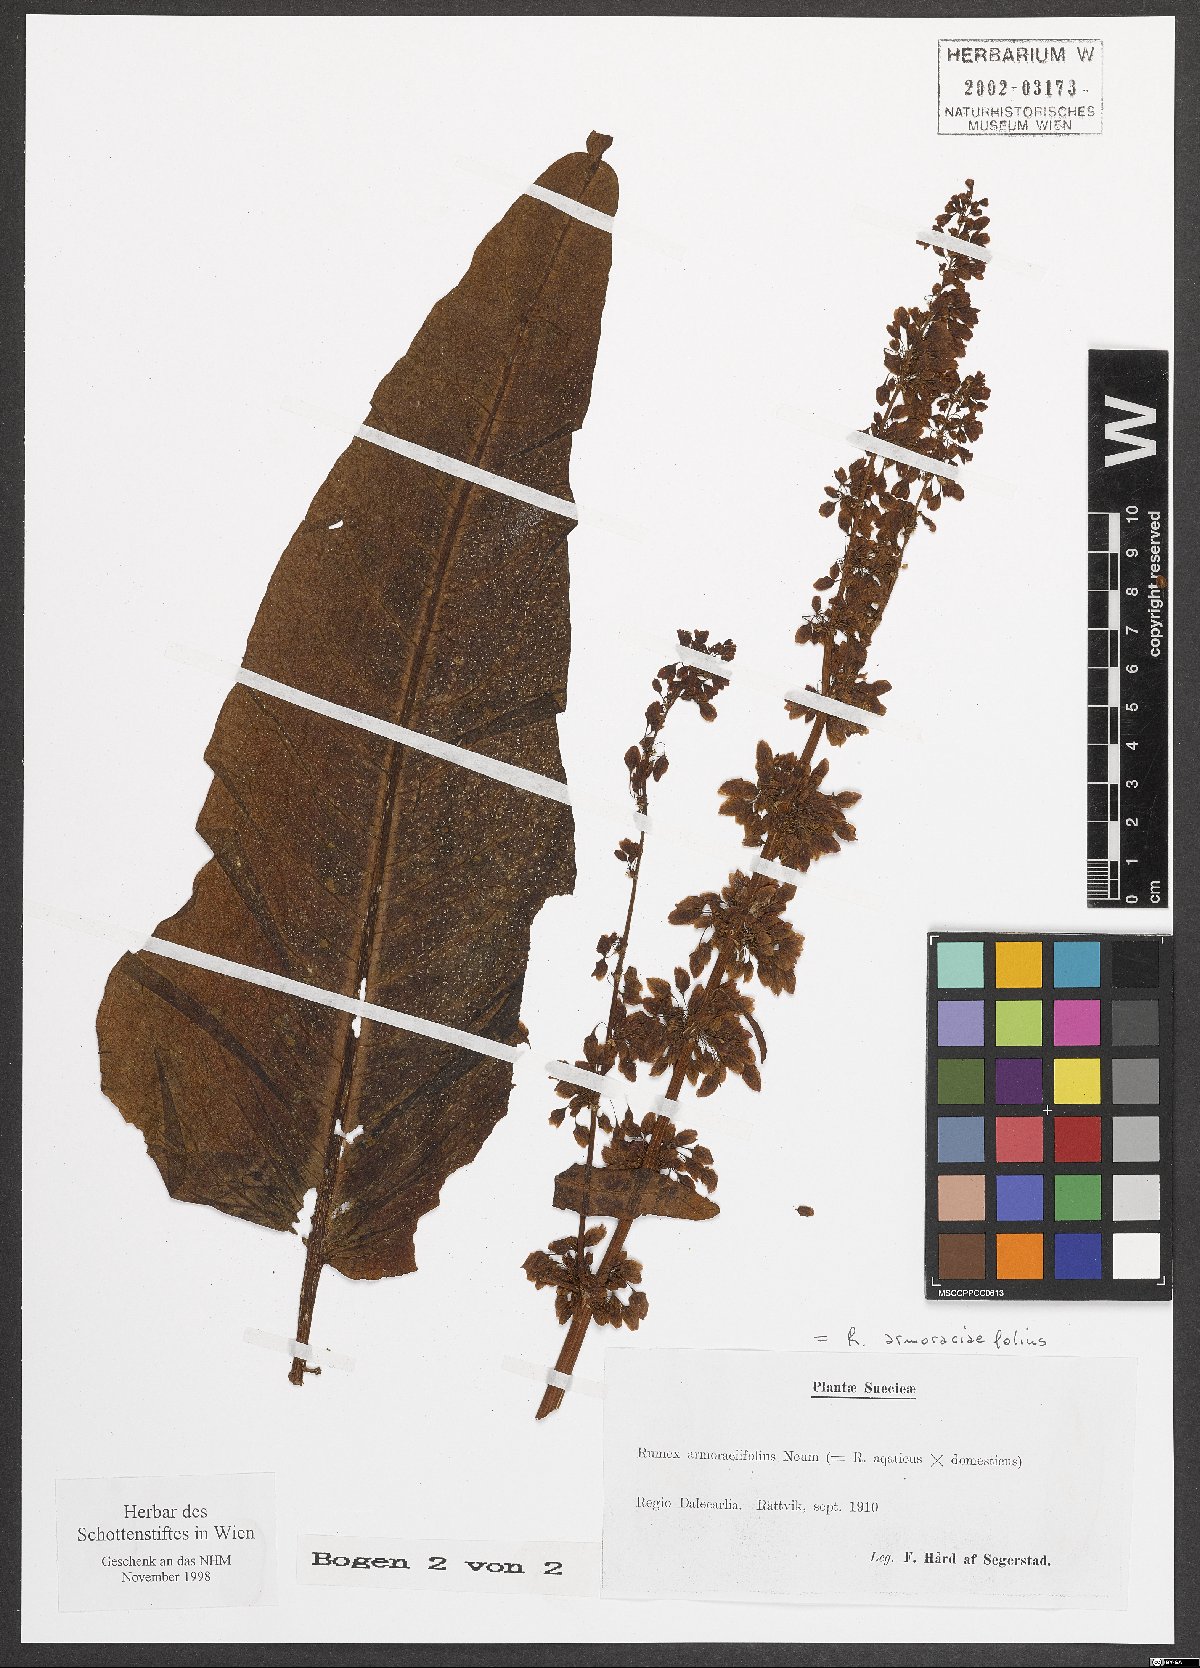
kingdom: Plantae
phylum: Tracheophyta
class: Magnoliopsida
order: Caryophyllales
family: Polygonaceae
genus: Rumex
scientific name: Rumex
